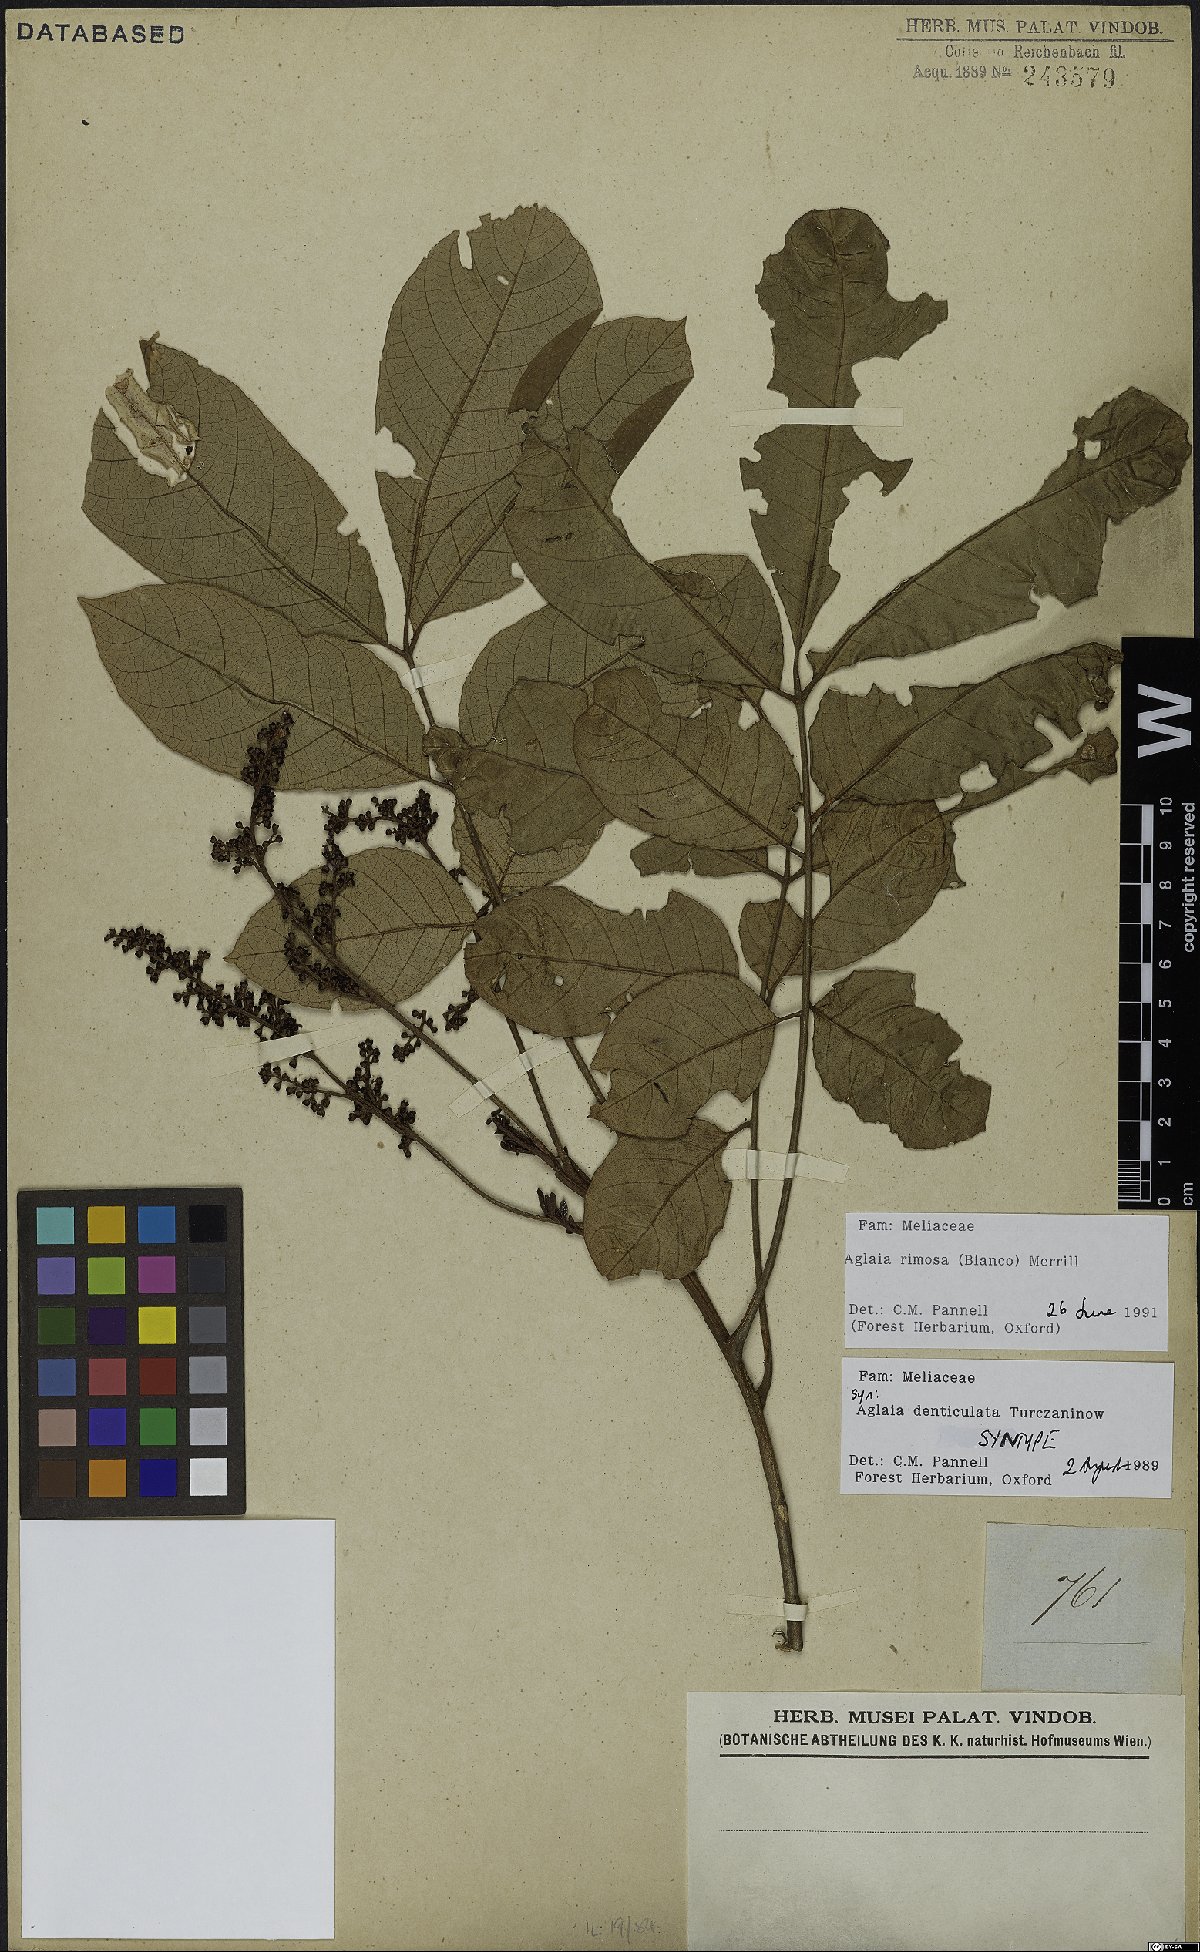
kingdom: Plantae
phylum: Tracheophyta
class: Magnoliopsida
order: Sapindales
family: Meliaceae
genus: Aglaia
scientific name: Aglaia rimosa
